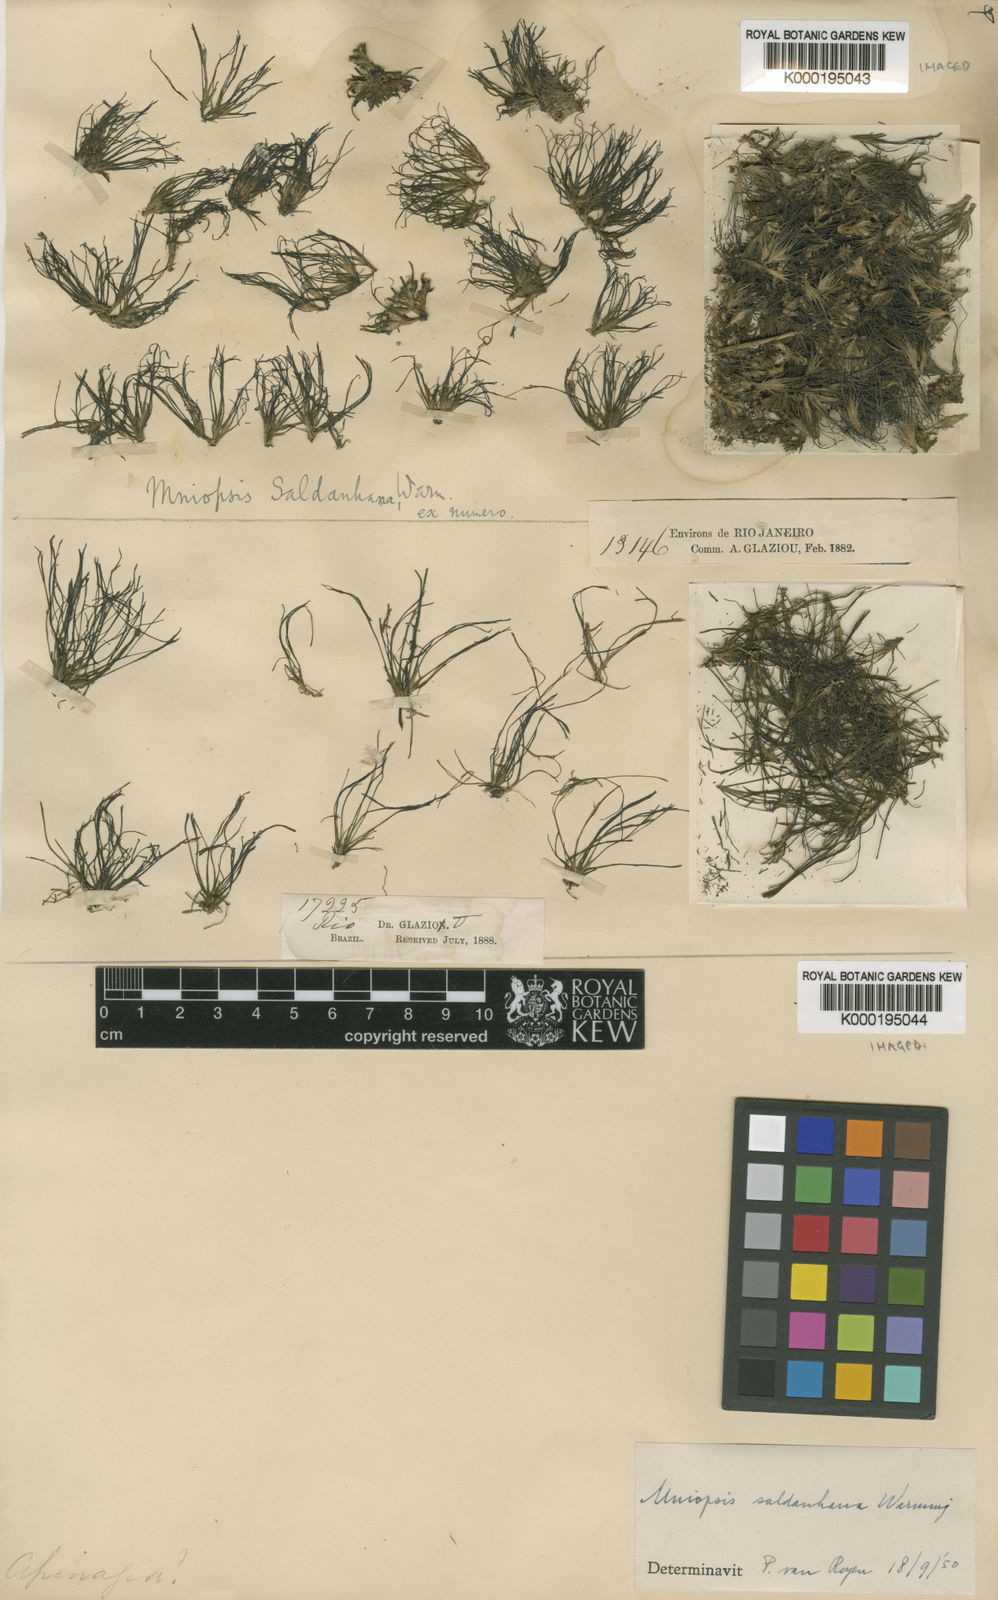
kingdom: Plantae
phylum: Tracheophyta
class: Magnoliopsida
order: Malpighiales
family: Podostemaceae
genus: Podostemum
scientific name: Podostemum saldanhanum
